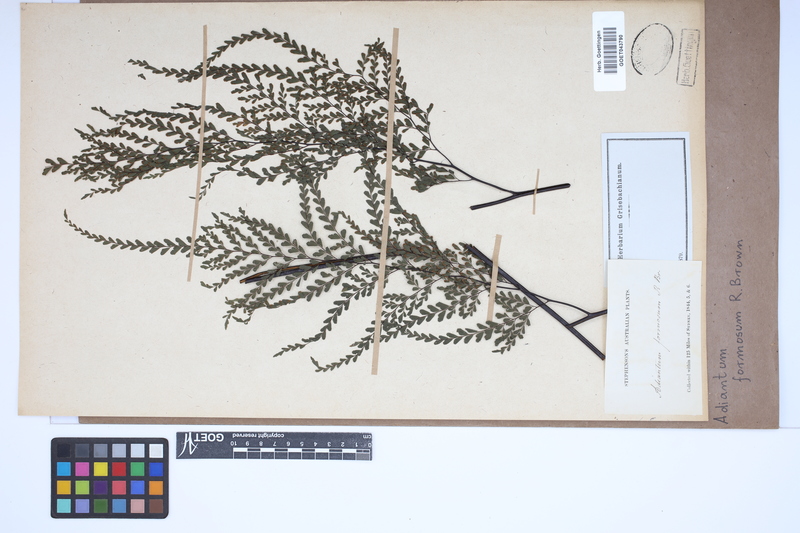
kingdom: Plantae
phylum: Tracheophyta
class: Polypodiopsida
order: Polypodiales
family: Pteridaceae
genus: Adiantum
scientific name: Adiantum formosum
